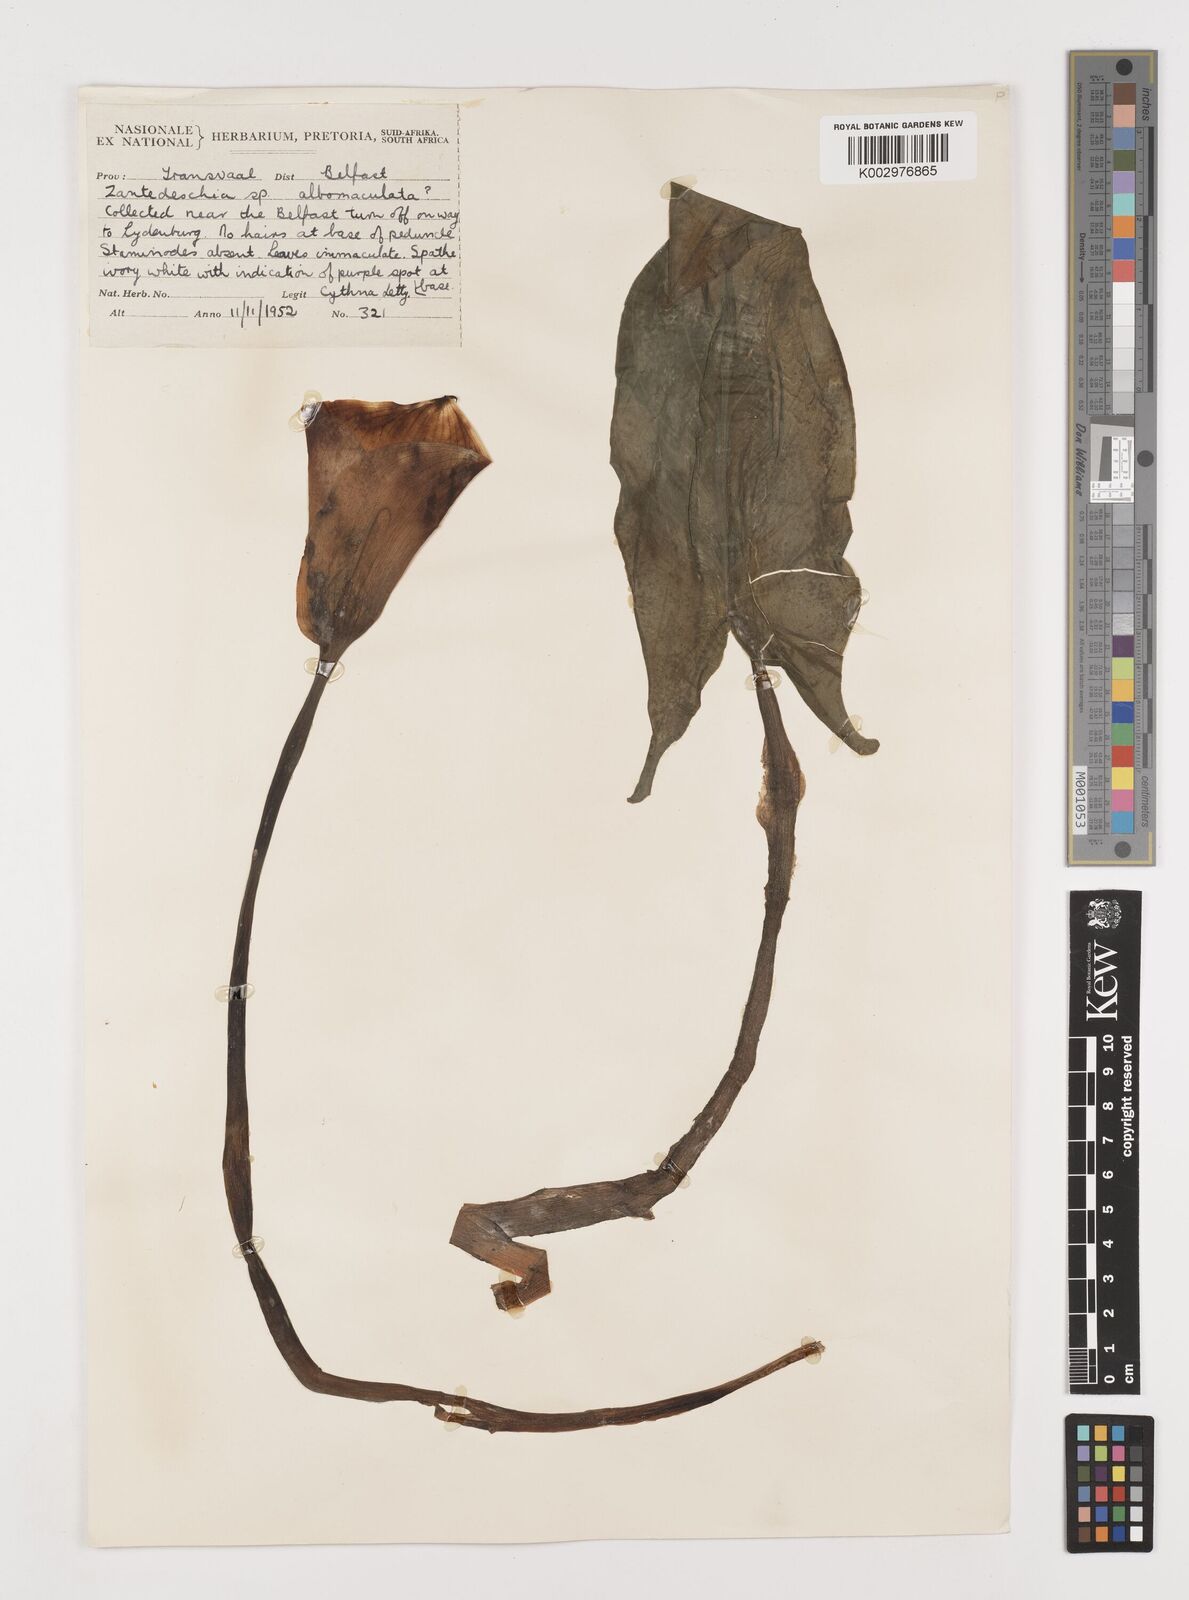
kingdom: Plantae
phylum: Tracheophyta
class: Liliopsida
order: Alismatales
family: Araceae
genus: Zantedeschia
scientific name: Zantedeschia albomaculata
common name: Spotted calla lily
